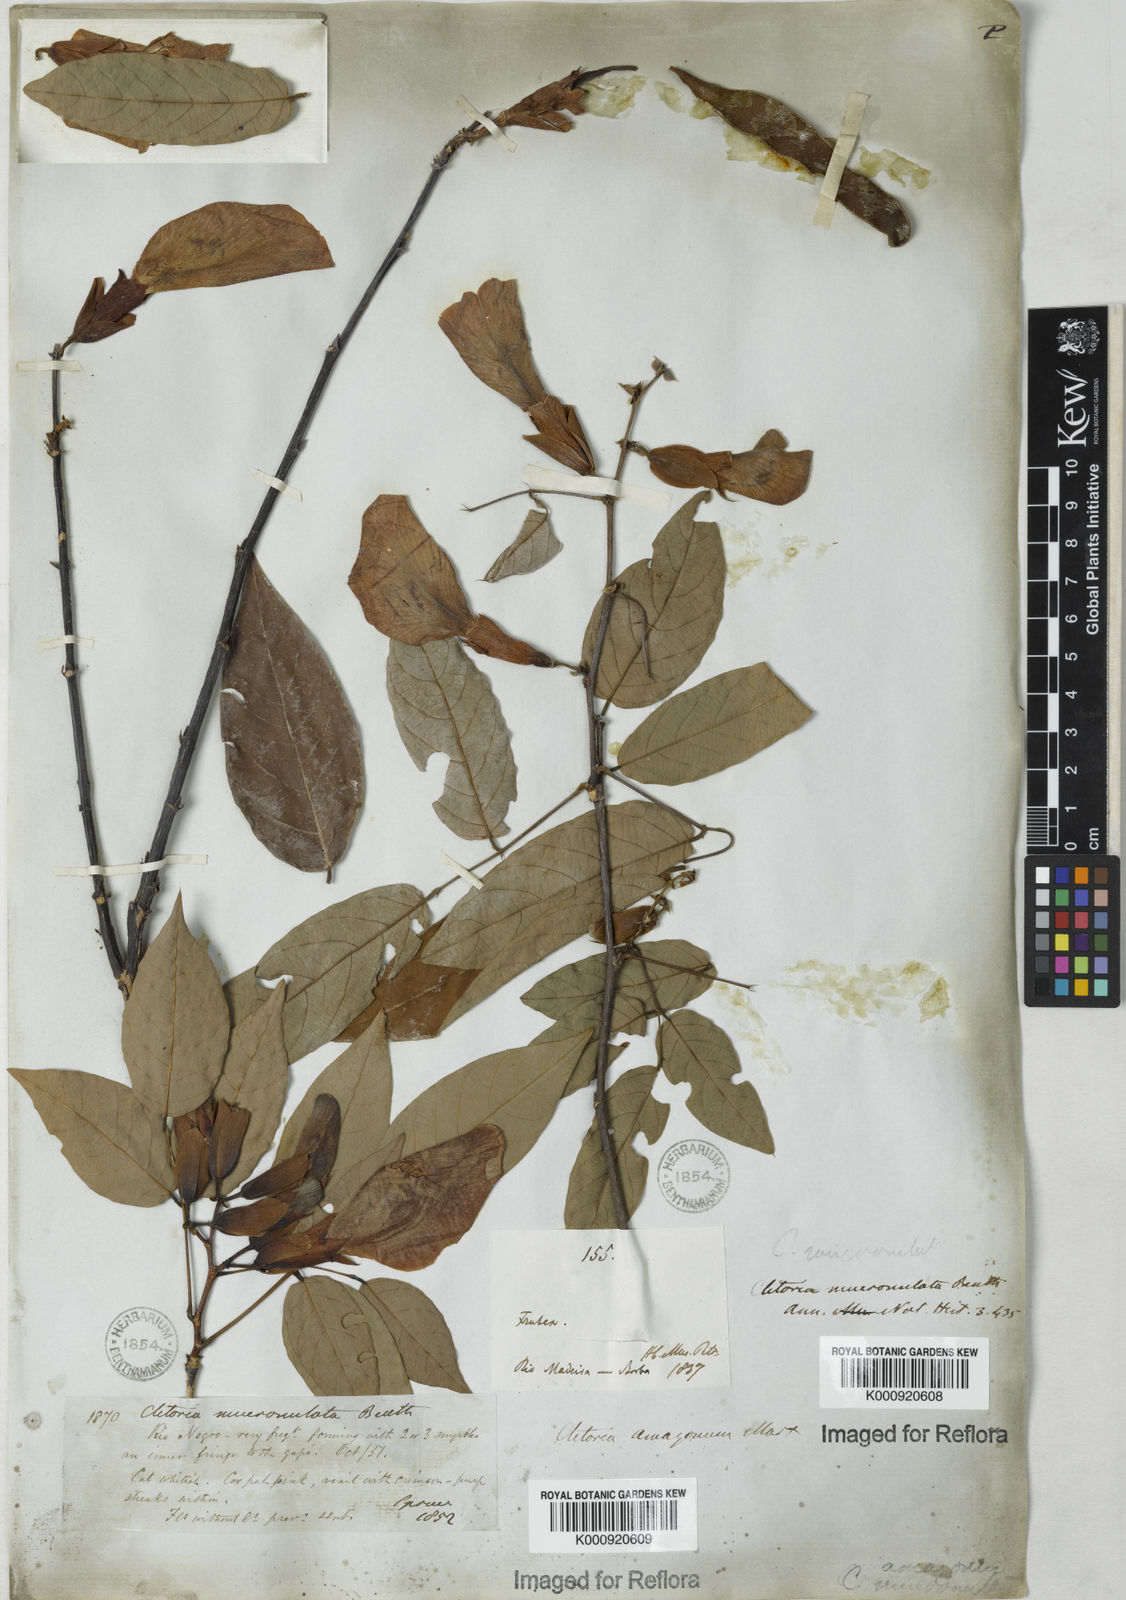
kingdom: Plantae
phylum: Tracheophyta
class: Magnoliopsida
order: Fabales
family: Fabaceae
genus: Clitoria
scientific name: Clitoria amazonum
